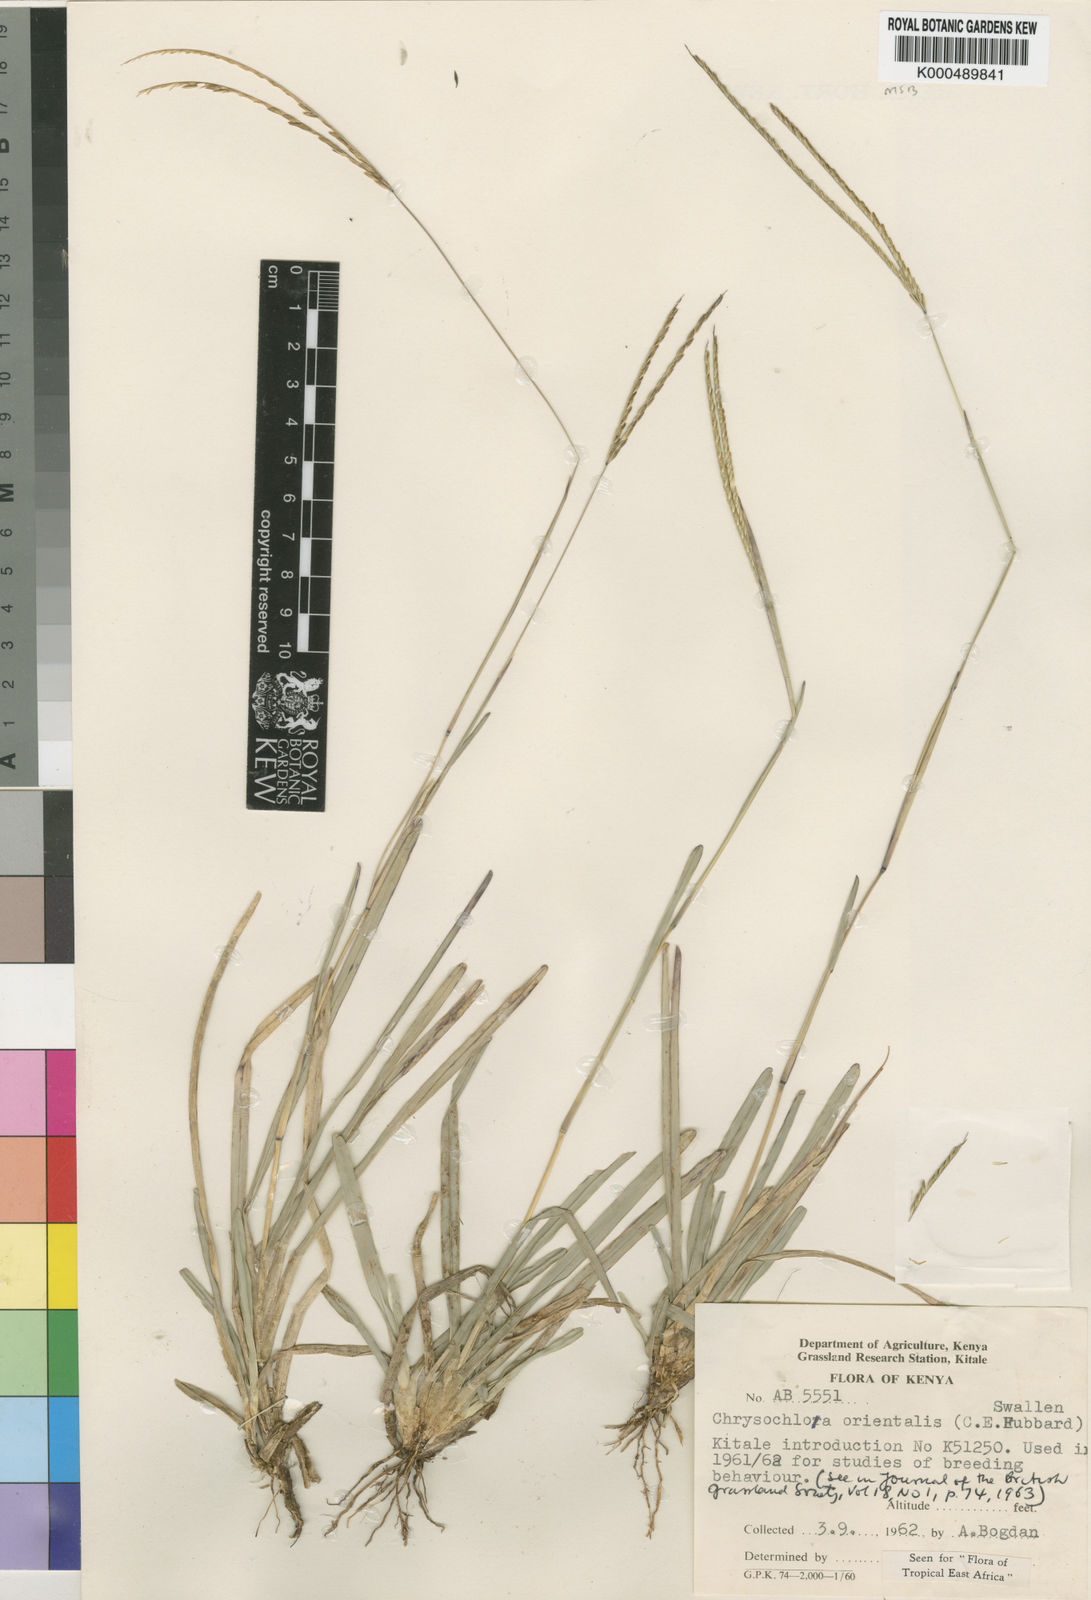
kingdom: Plantae
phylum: Tracheophyta
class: Liliopsida
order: Poales
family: Poaceae
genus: Chrysochloa
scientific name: Chrysochloa
